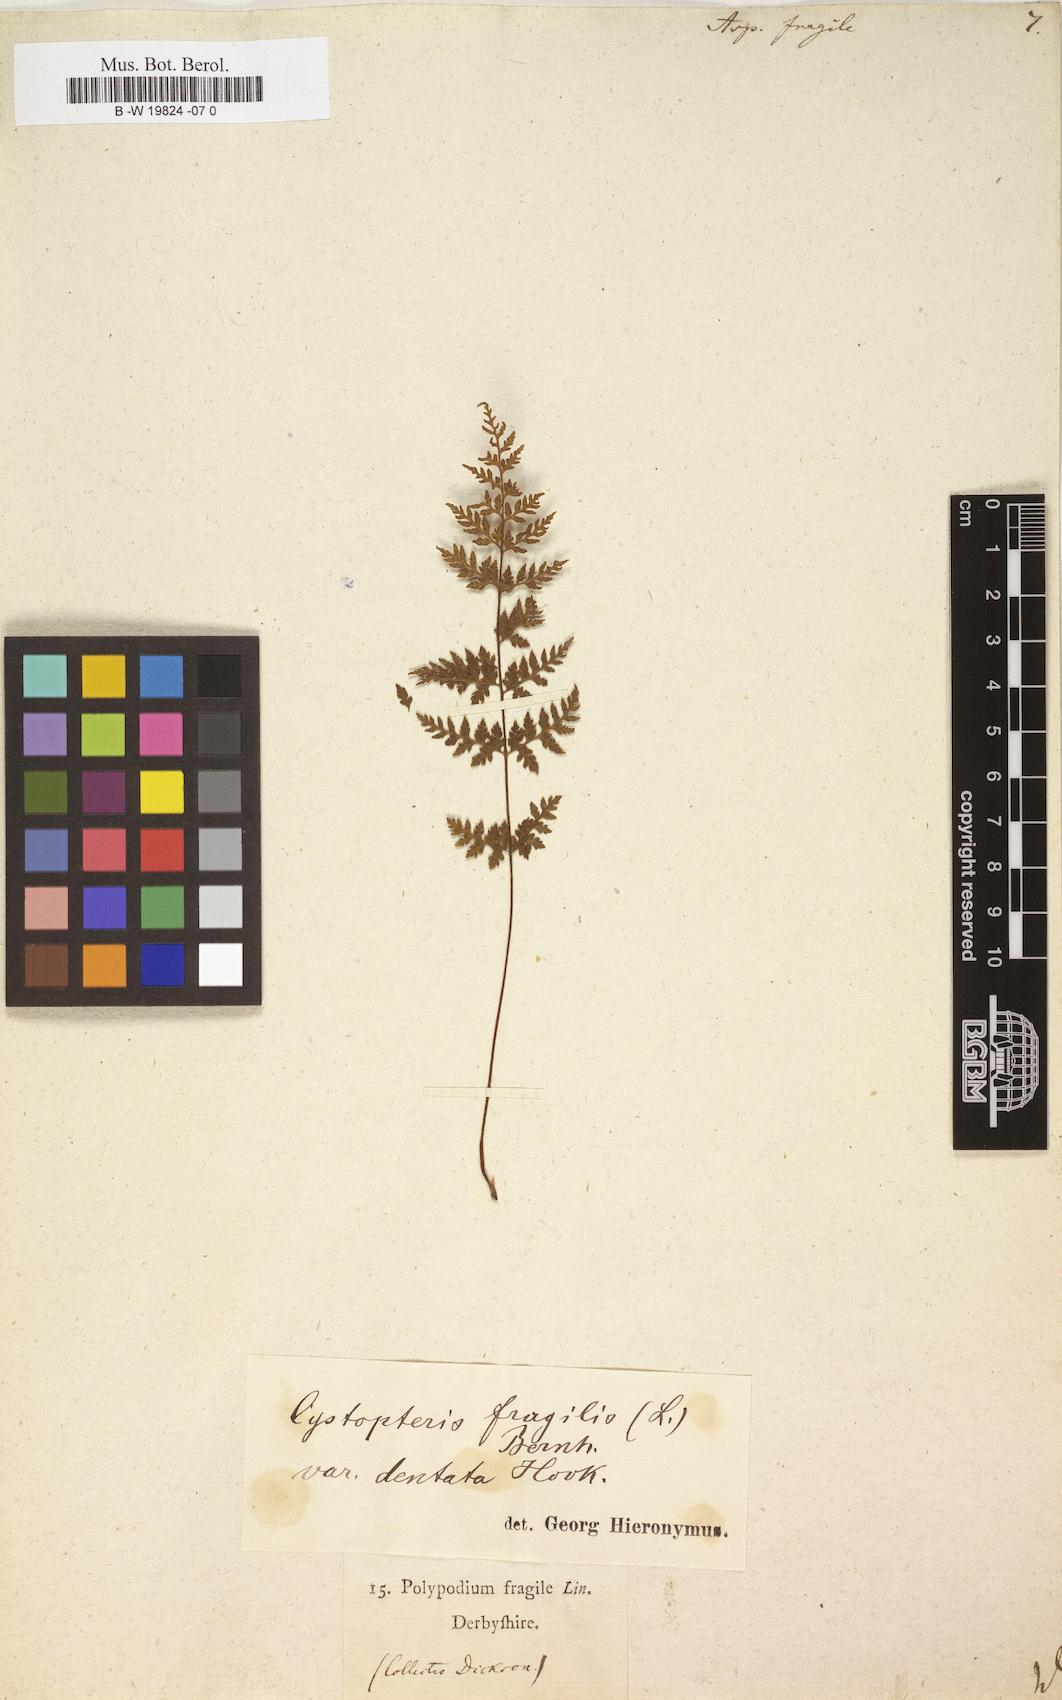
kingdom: Plantae
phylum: Tracheophyta
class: Polypodiopsida
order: Polypodiales
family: Cystopteridaceae
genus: Cystopteris
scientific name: Cystopteris fragilis
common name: Brittle bladder fern
